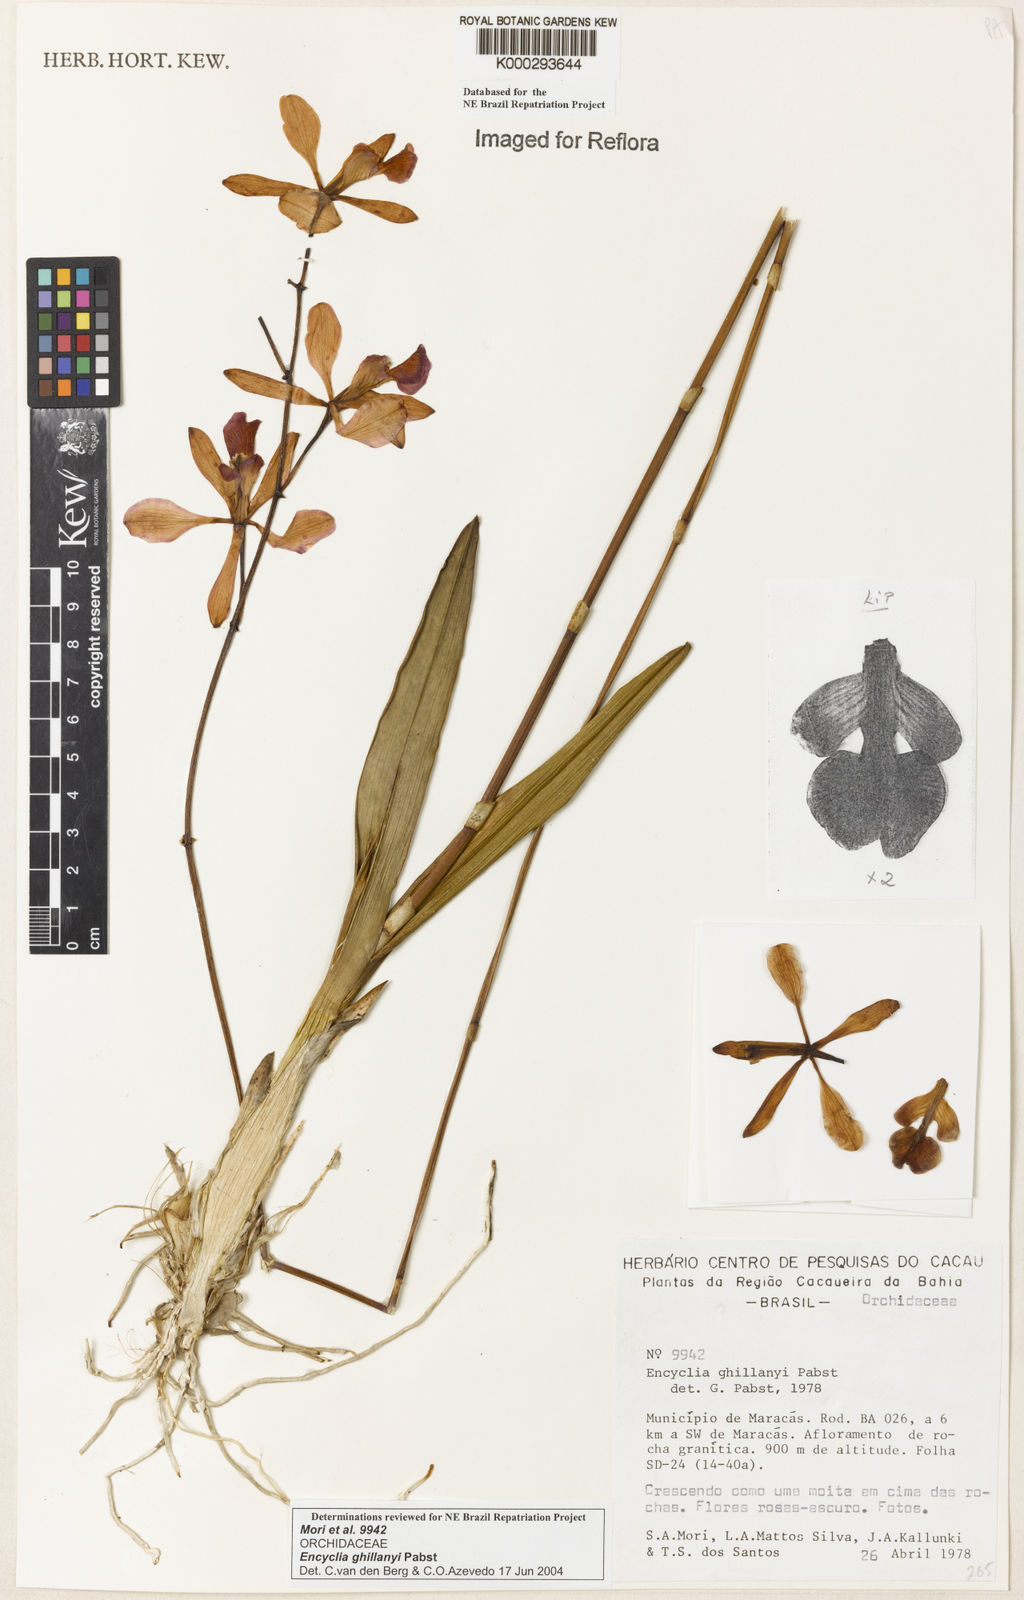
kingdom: Plantae
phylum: Tracheophyta
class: Liliopsida
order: Asparagales
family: Orchidaceae
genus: Encyclia
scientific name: Encyclia jenischiana
